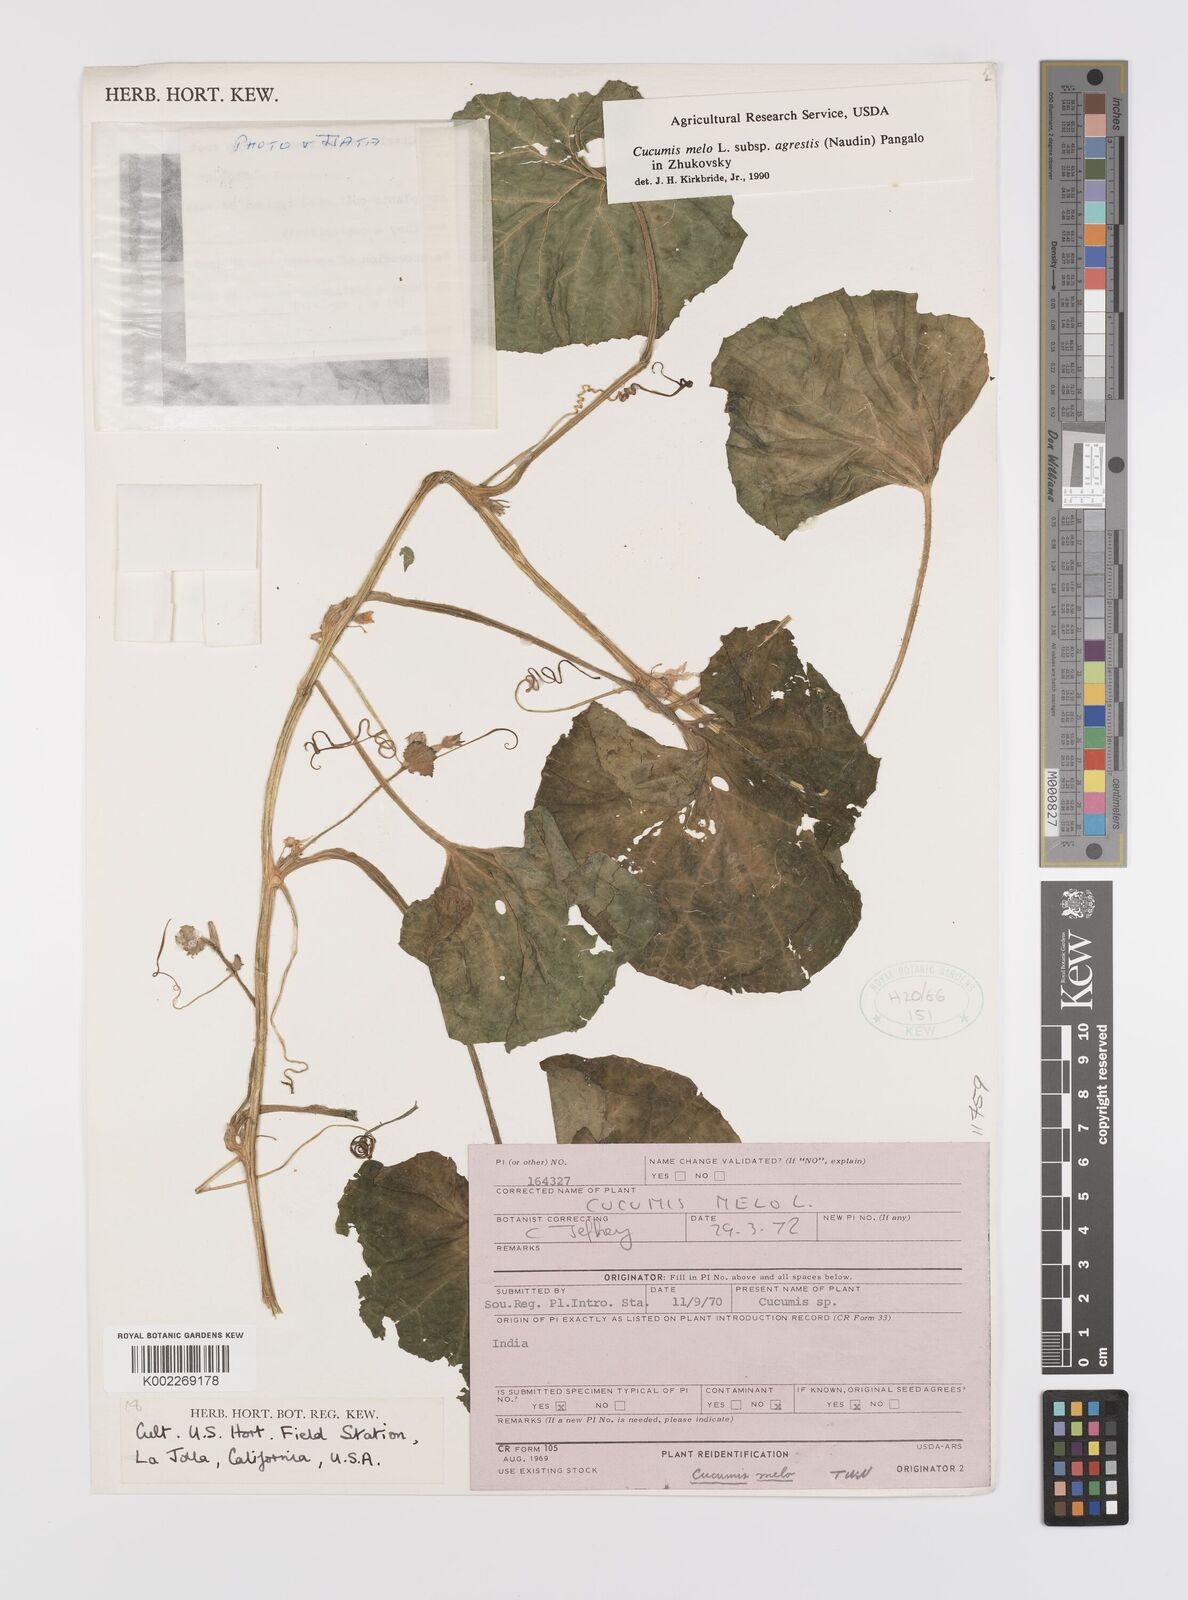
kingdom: Plantae
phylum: Tracheophyta
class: Magnoliopsida
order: Cucurbitales
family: Cucurbitaceae
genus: Cucumis
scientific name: Cucumis melo
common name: Melon
